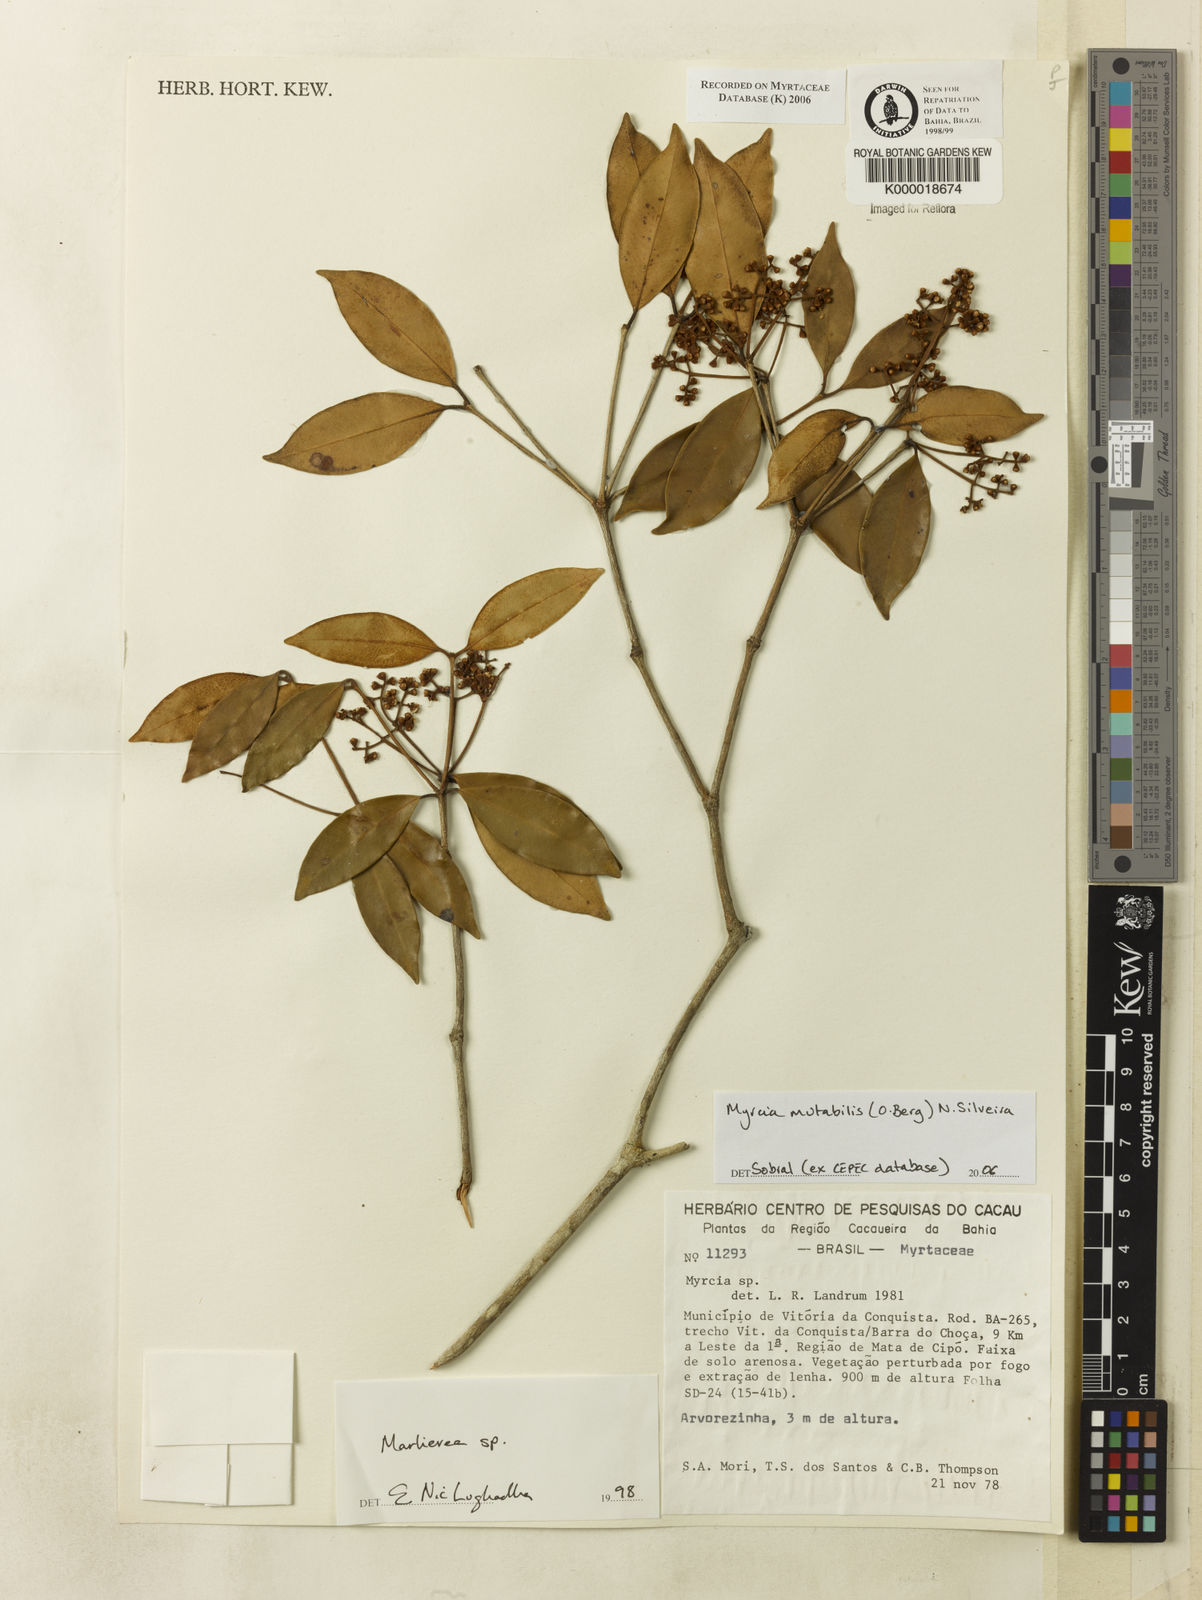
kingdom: Plantae
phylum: Tracheophyta
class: Magnoliopsida
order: Myrtales
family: Myrtaceae
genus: Marlierea
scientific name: Marlierea
